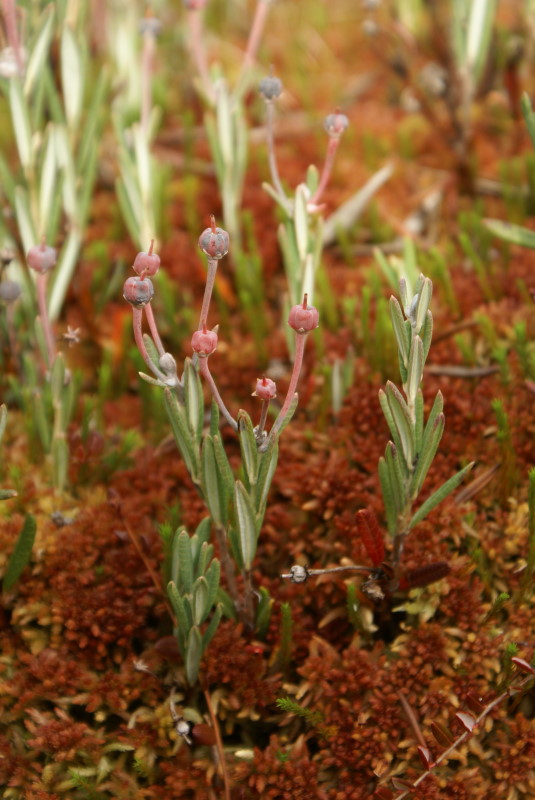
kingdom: Plantae
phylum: Tracheophyta
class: Magnoliopsida
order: Ericales
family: Ericaceae
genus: Andromeda
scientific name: Andromeda polifolia
